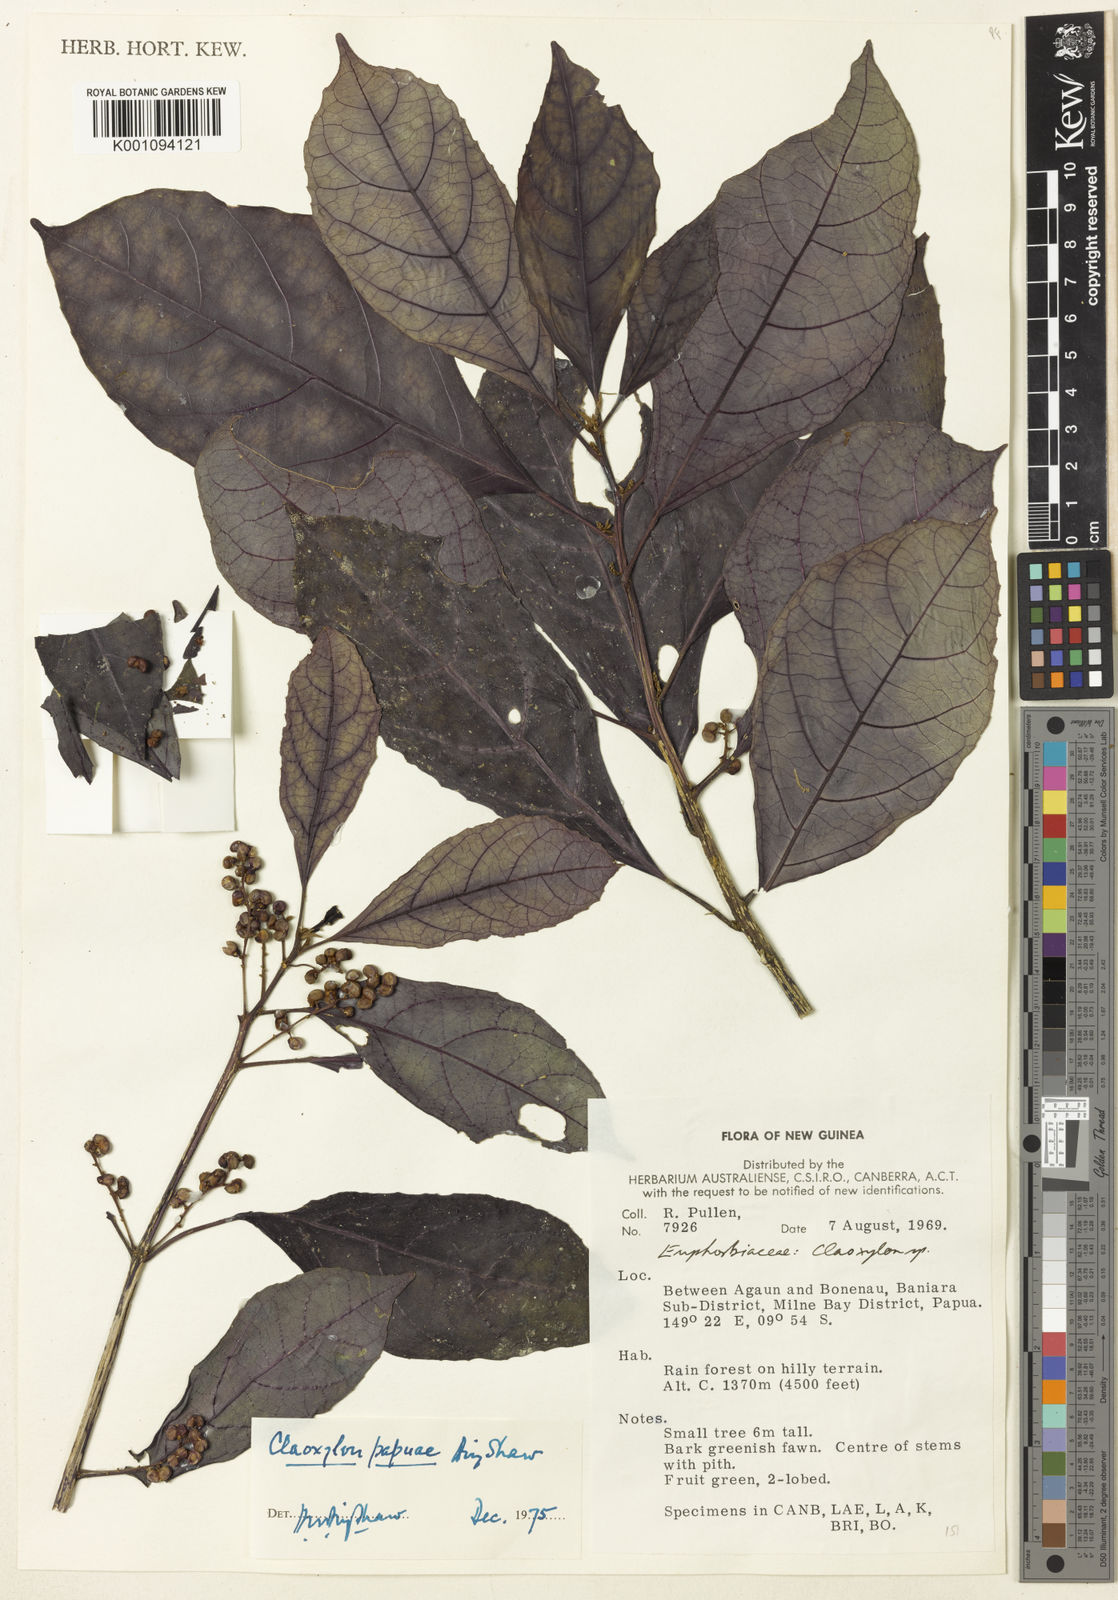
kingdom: Plantae
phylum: Tracheophyta
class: Magnoliopsida
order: Malpighiales
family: Euphorbiaceae
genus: Claoxylon
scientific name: Claoxylon papuae
